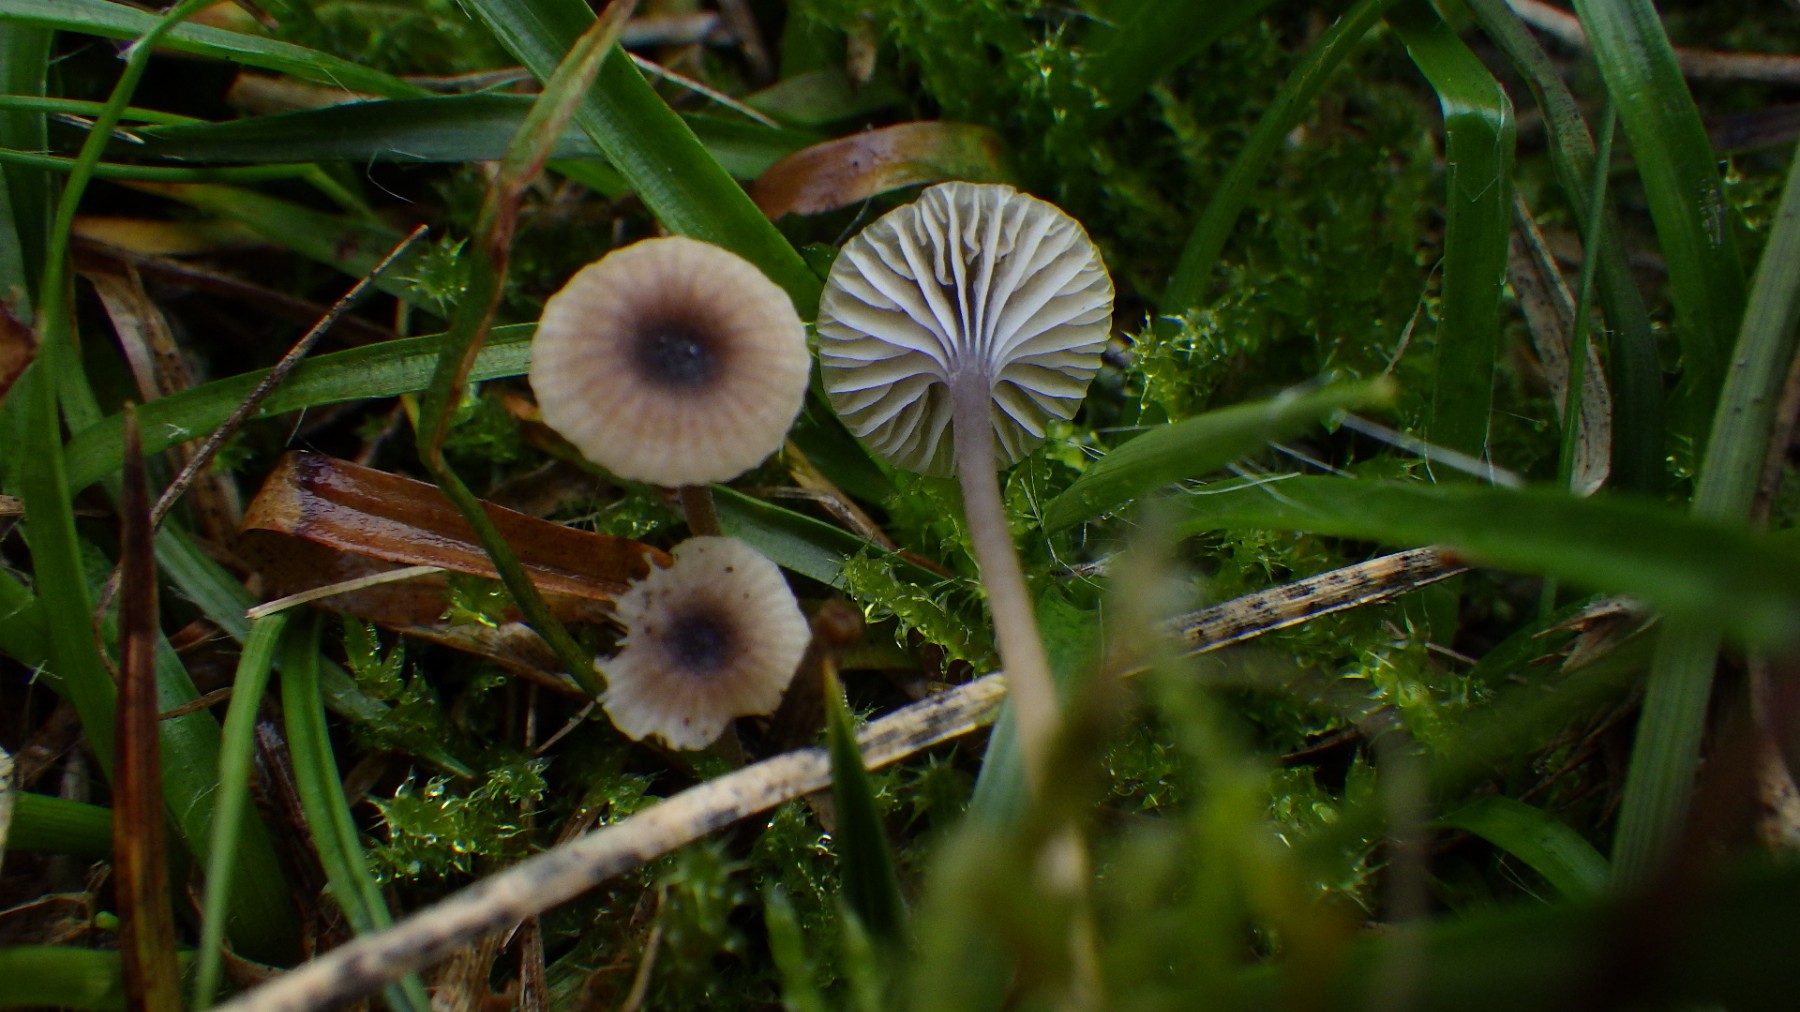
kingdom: Fungi
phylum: Basidiomycota
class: Agaricomycetes
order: Hymenochaetales
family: Rickenellaceae
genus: Rickenella
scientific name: Rickenella swartzii
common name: finstokket mosnavlehat
